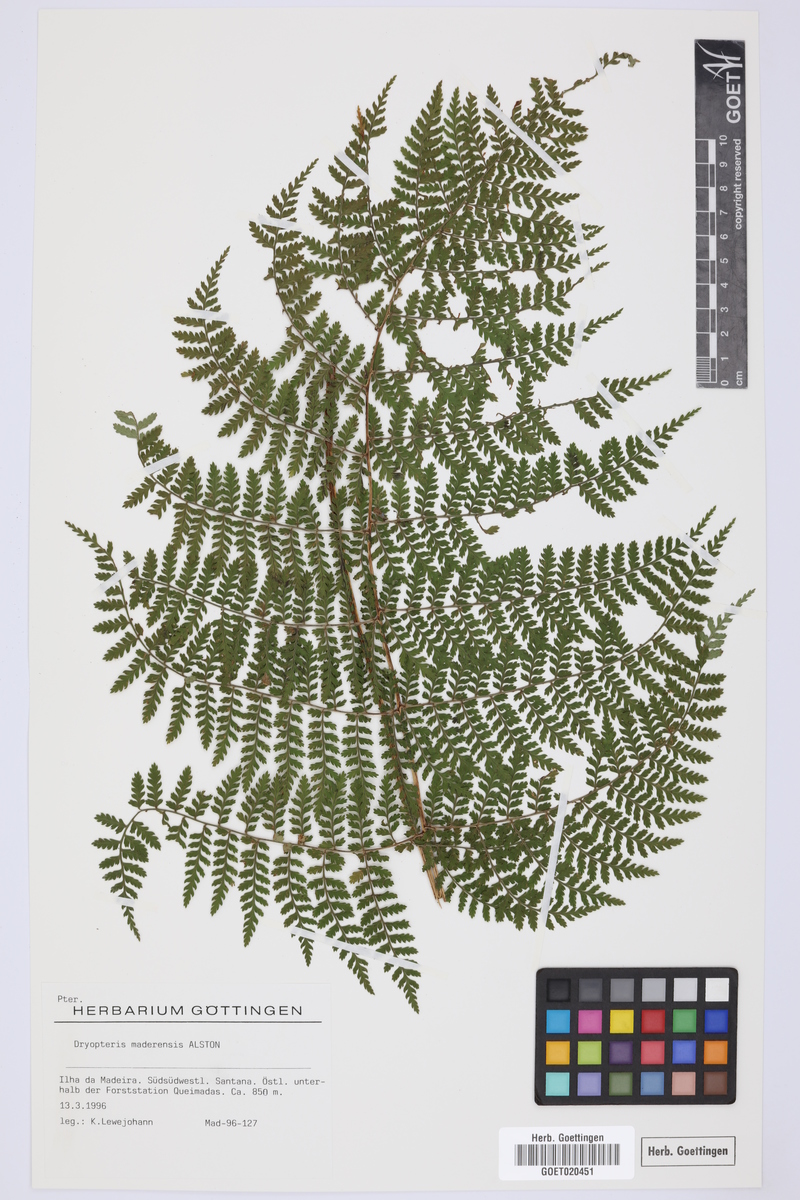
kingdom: Plantae
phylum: Tracheophyta
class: Polypodiopsida
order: Polypodiales
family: Dryopteridaceae
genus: Dryopteris
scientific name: Dryopteris intermedia
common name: Evergreen wood fern
